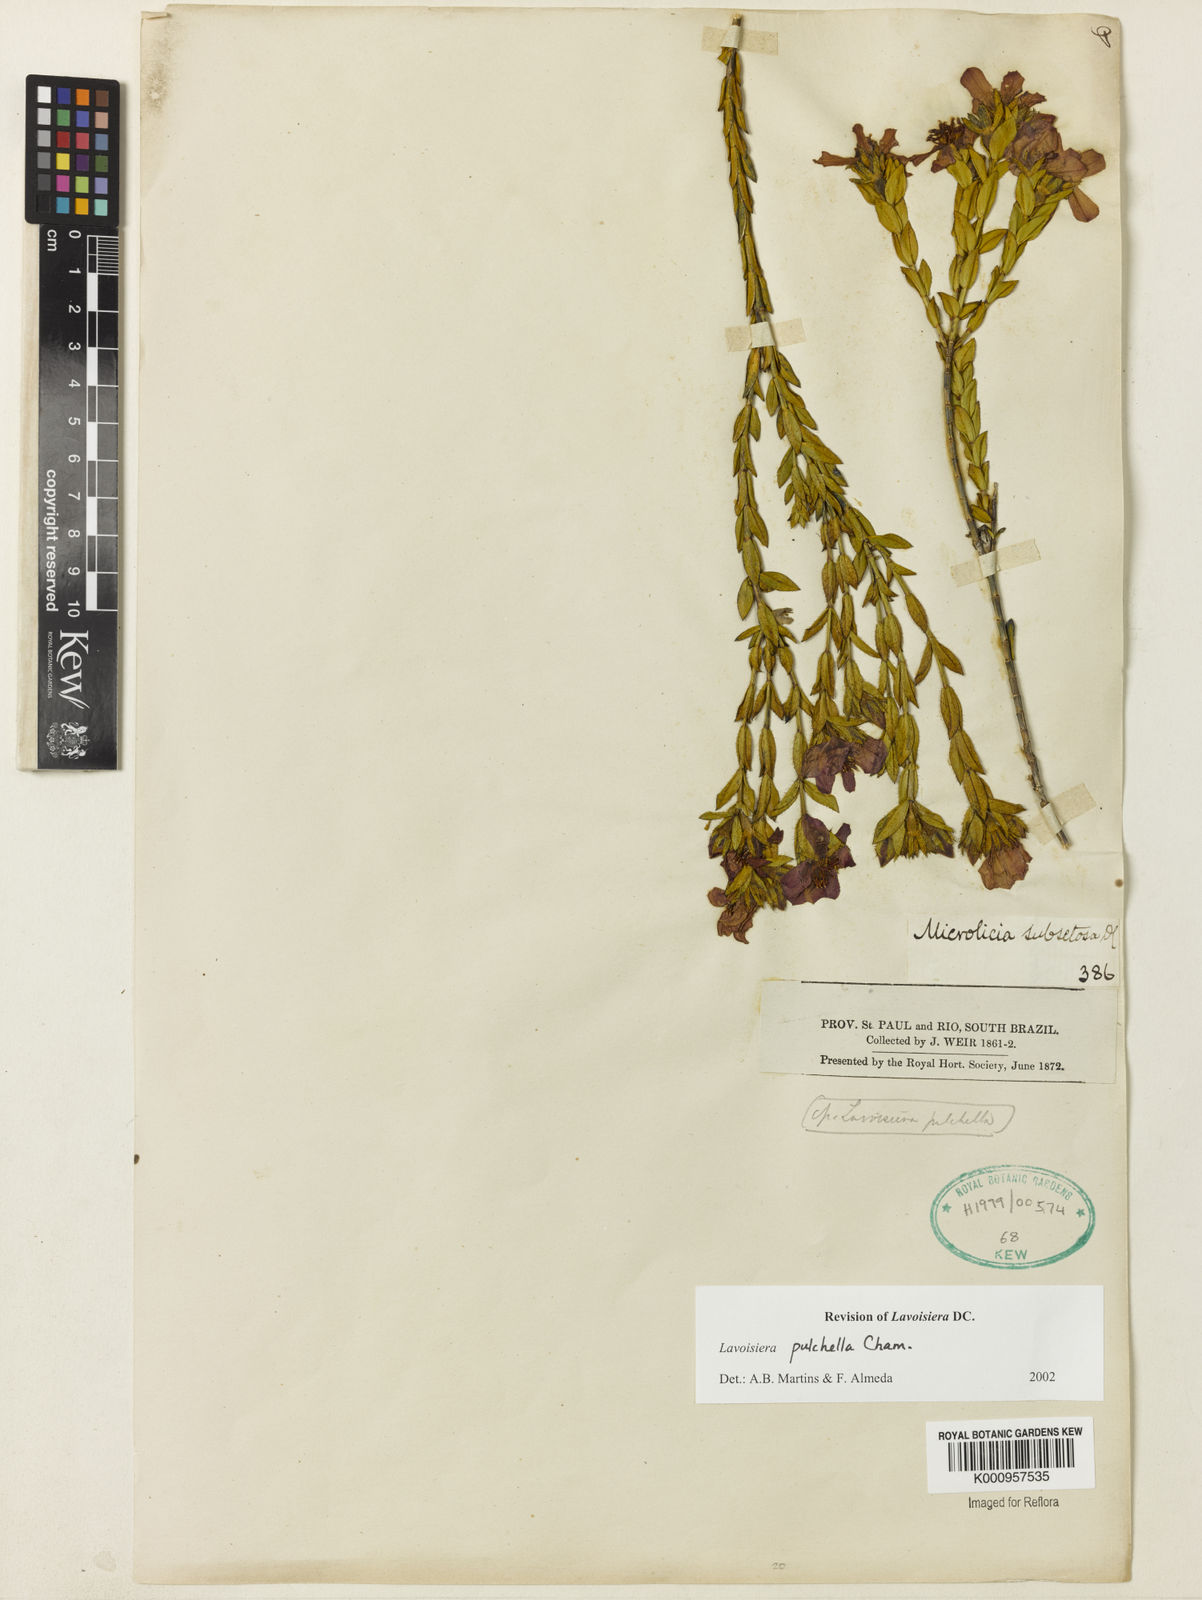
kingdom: Plantae
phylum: Tracheophyta
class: Magnoliopsida
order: Myrtales
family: Melastomataceae
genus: Microlicia
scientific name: Microlicia australis
